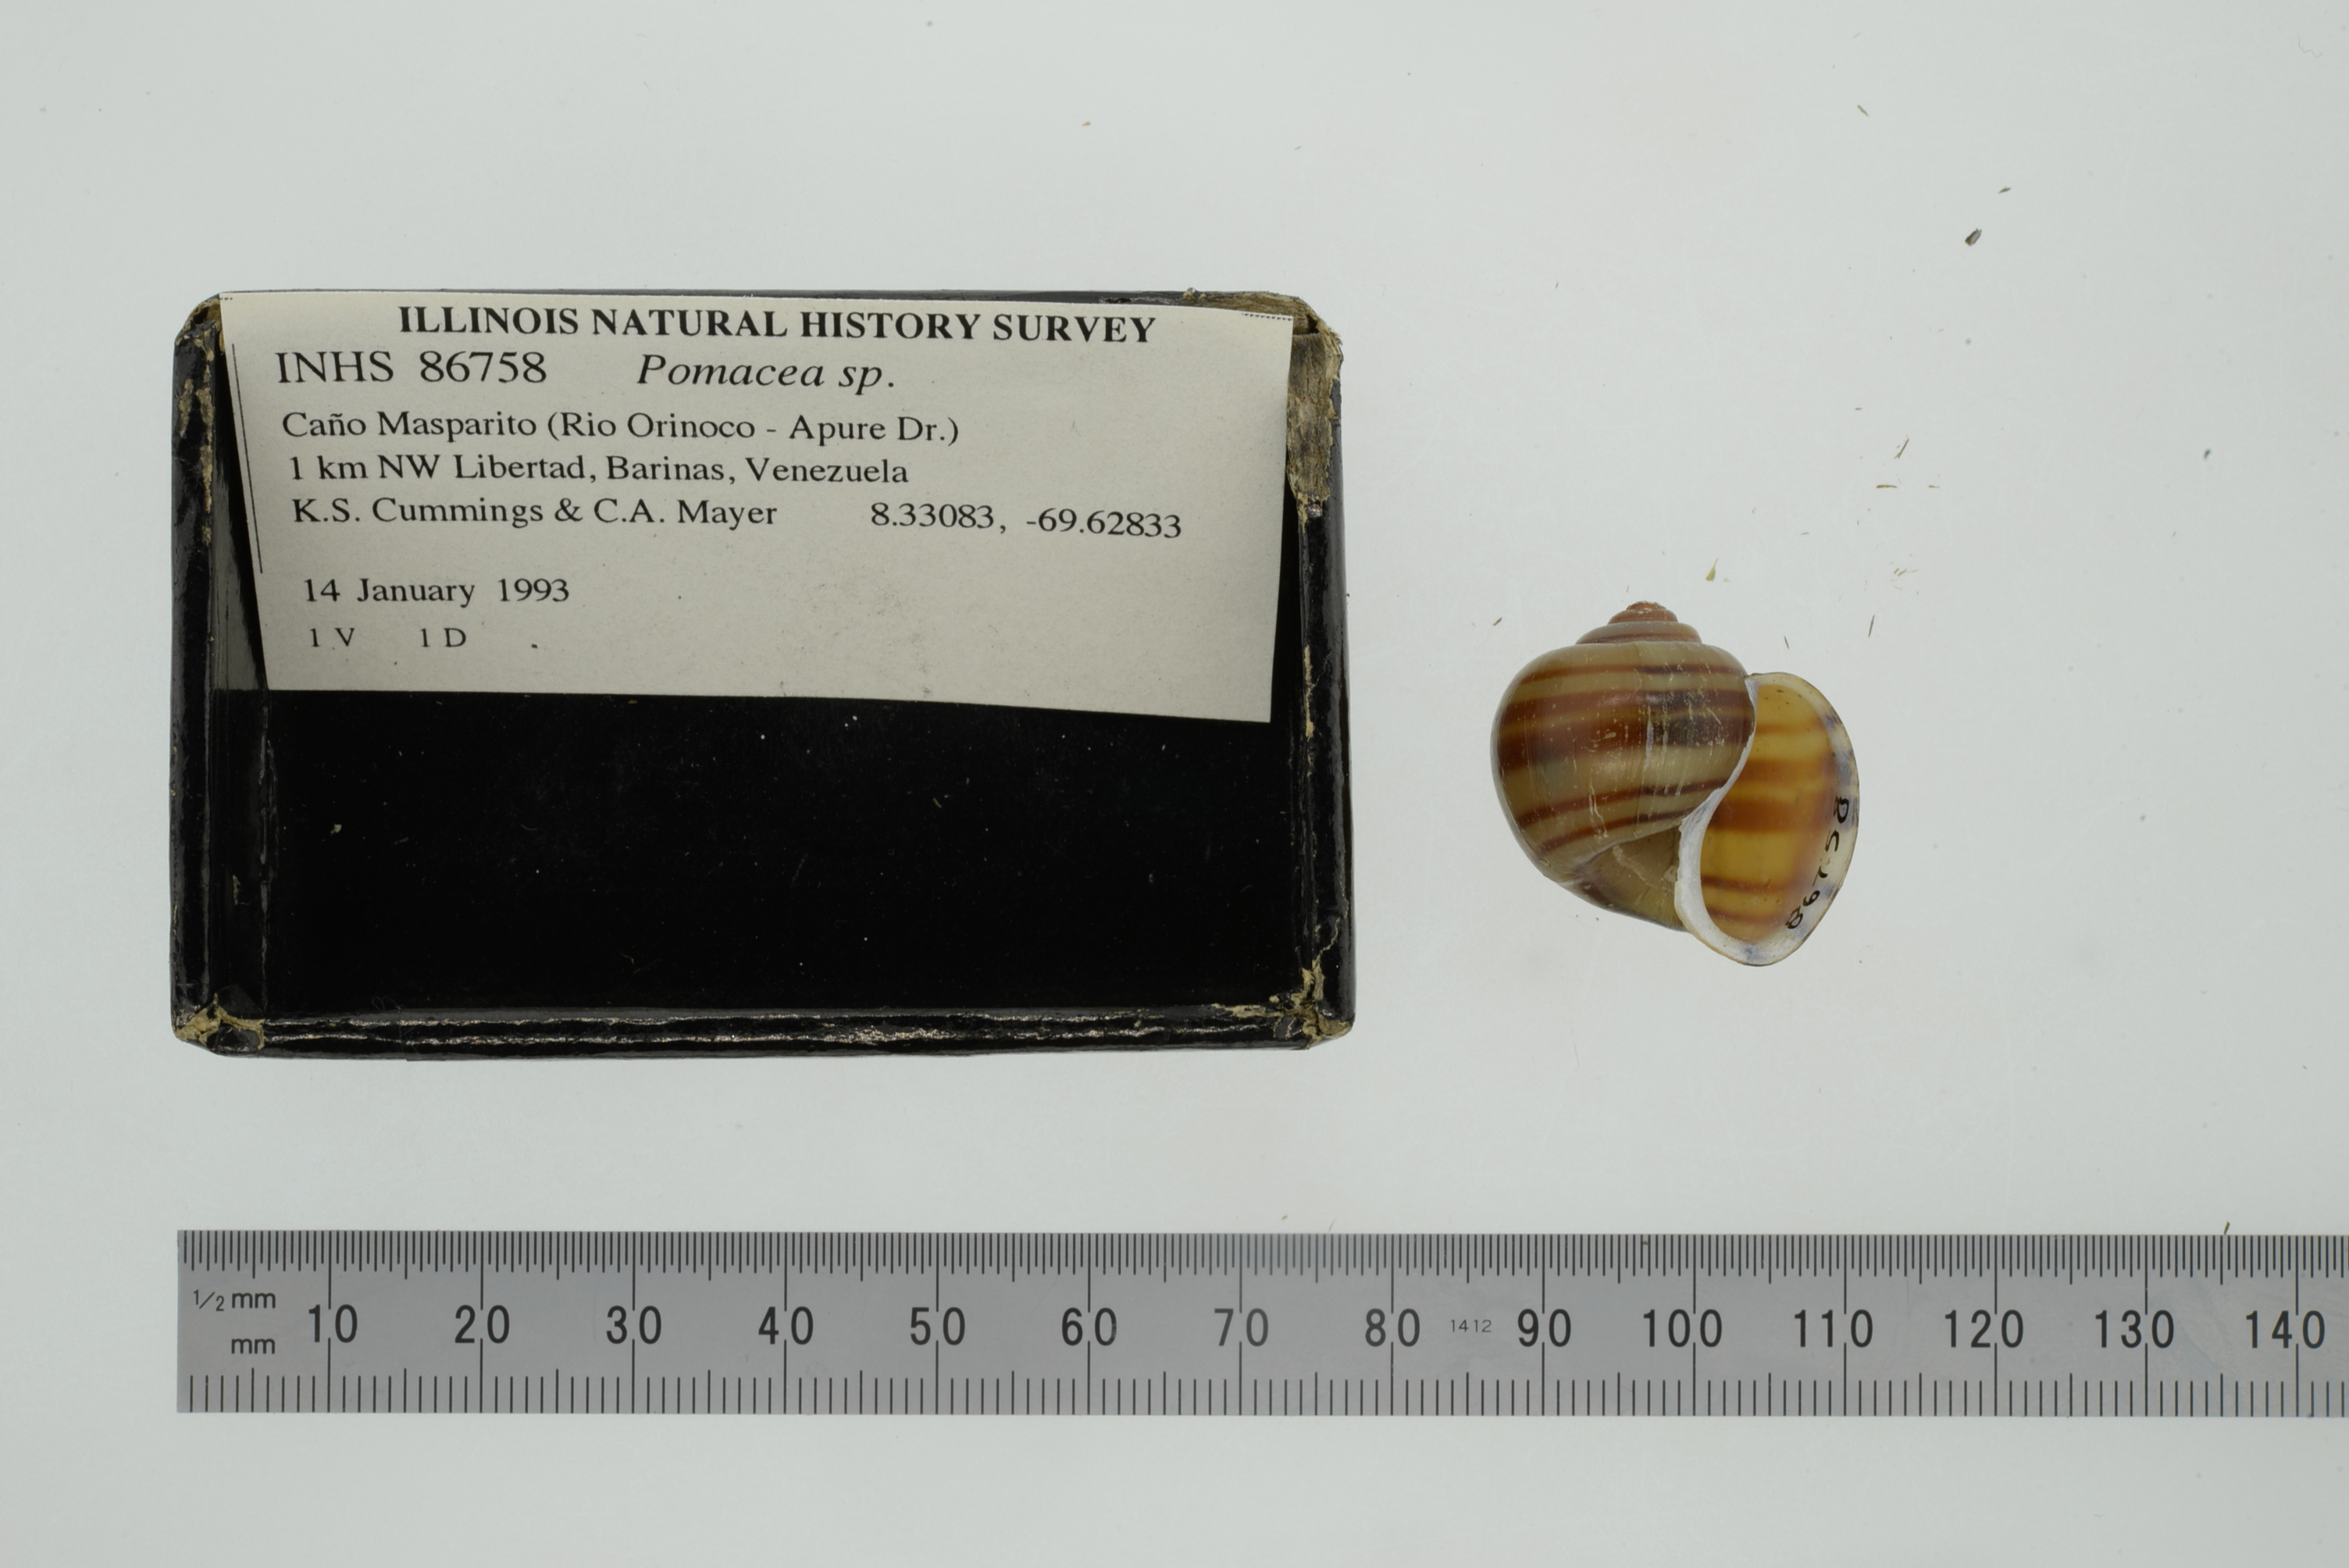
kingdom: Animalia
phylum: Mollusca
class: Gastropoda
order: Architaenioglossa
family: Ampullariidae
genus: Pomacea
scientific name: Pomacea
